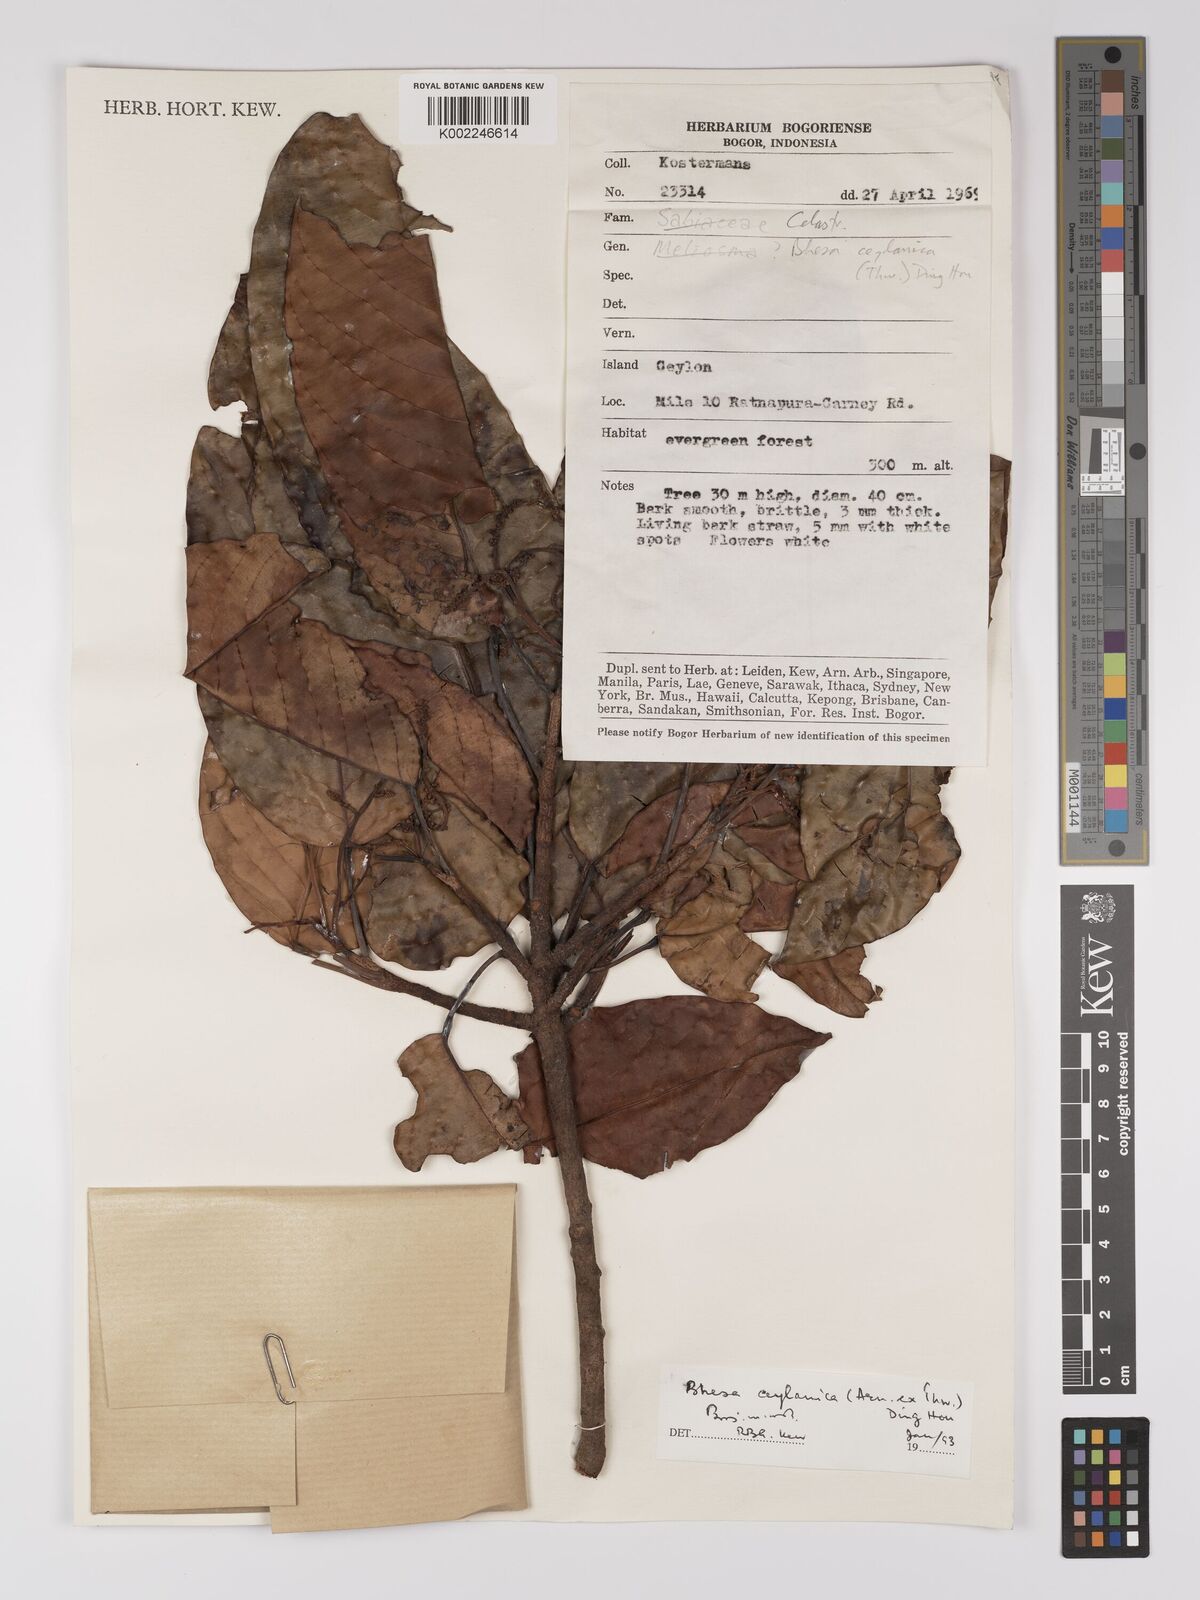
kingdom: Plantae
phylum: Tracheophyta
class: Magnoliopsida
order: Malpighiales
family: Centroplacaceae
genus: Bhesa
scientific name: Bhesa ceylanica
